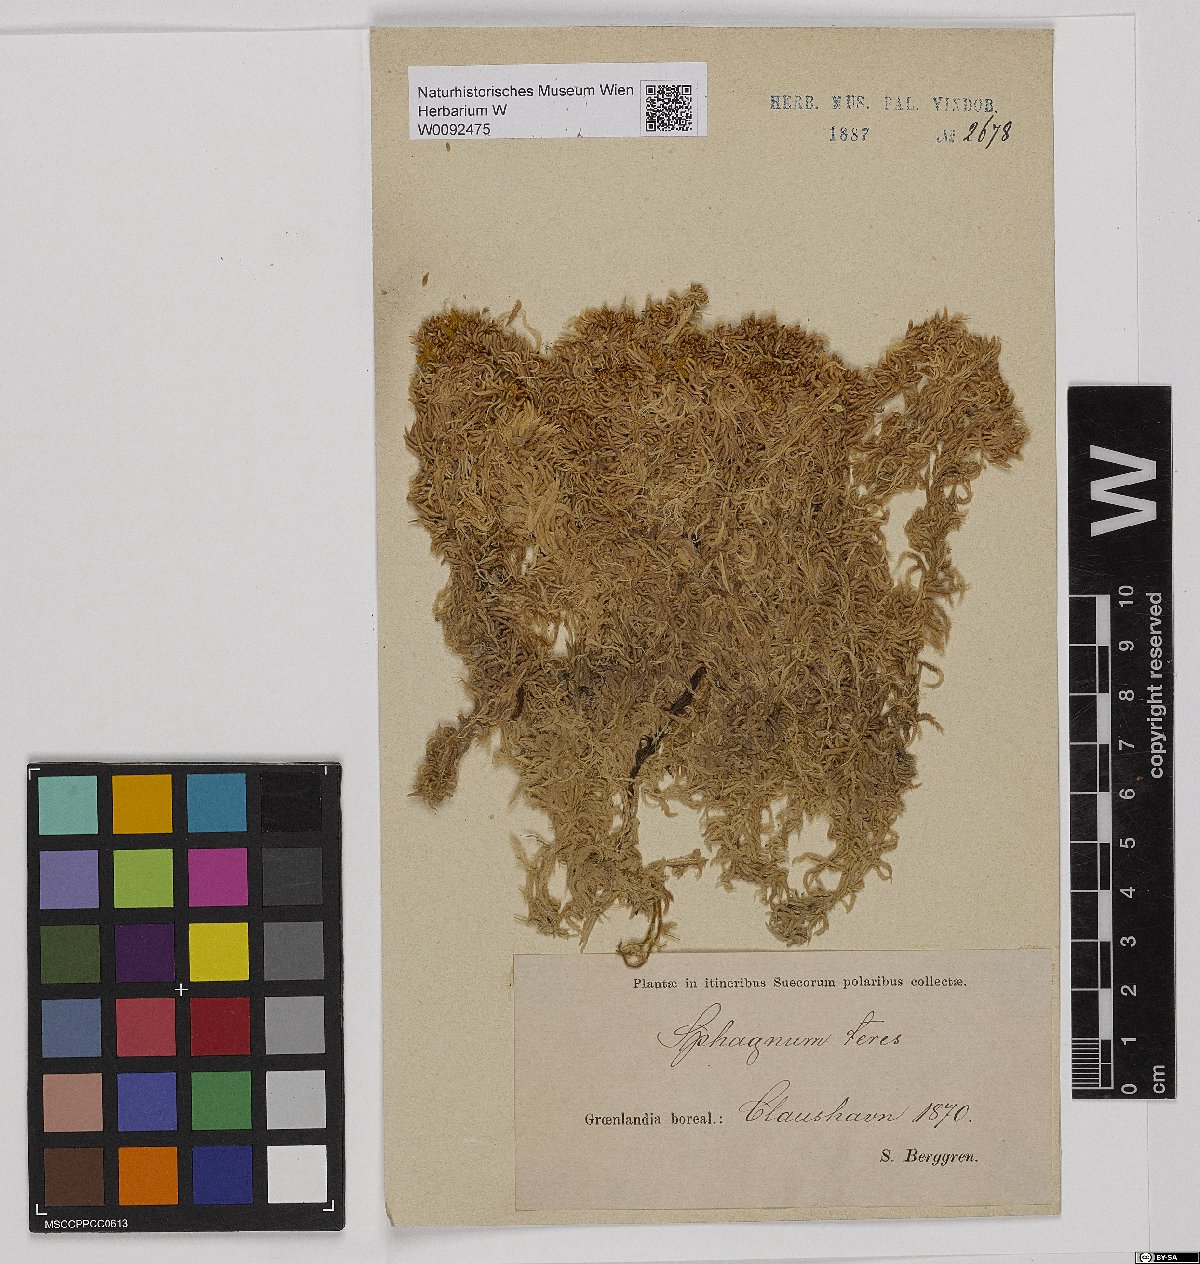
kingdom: Plantae
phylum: Bryophyta
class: Sphagnopsida
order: Sphagnales
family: Sphagnaceae
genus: Sphagnum
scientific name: Sphagnum teres
